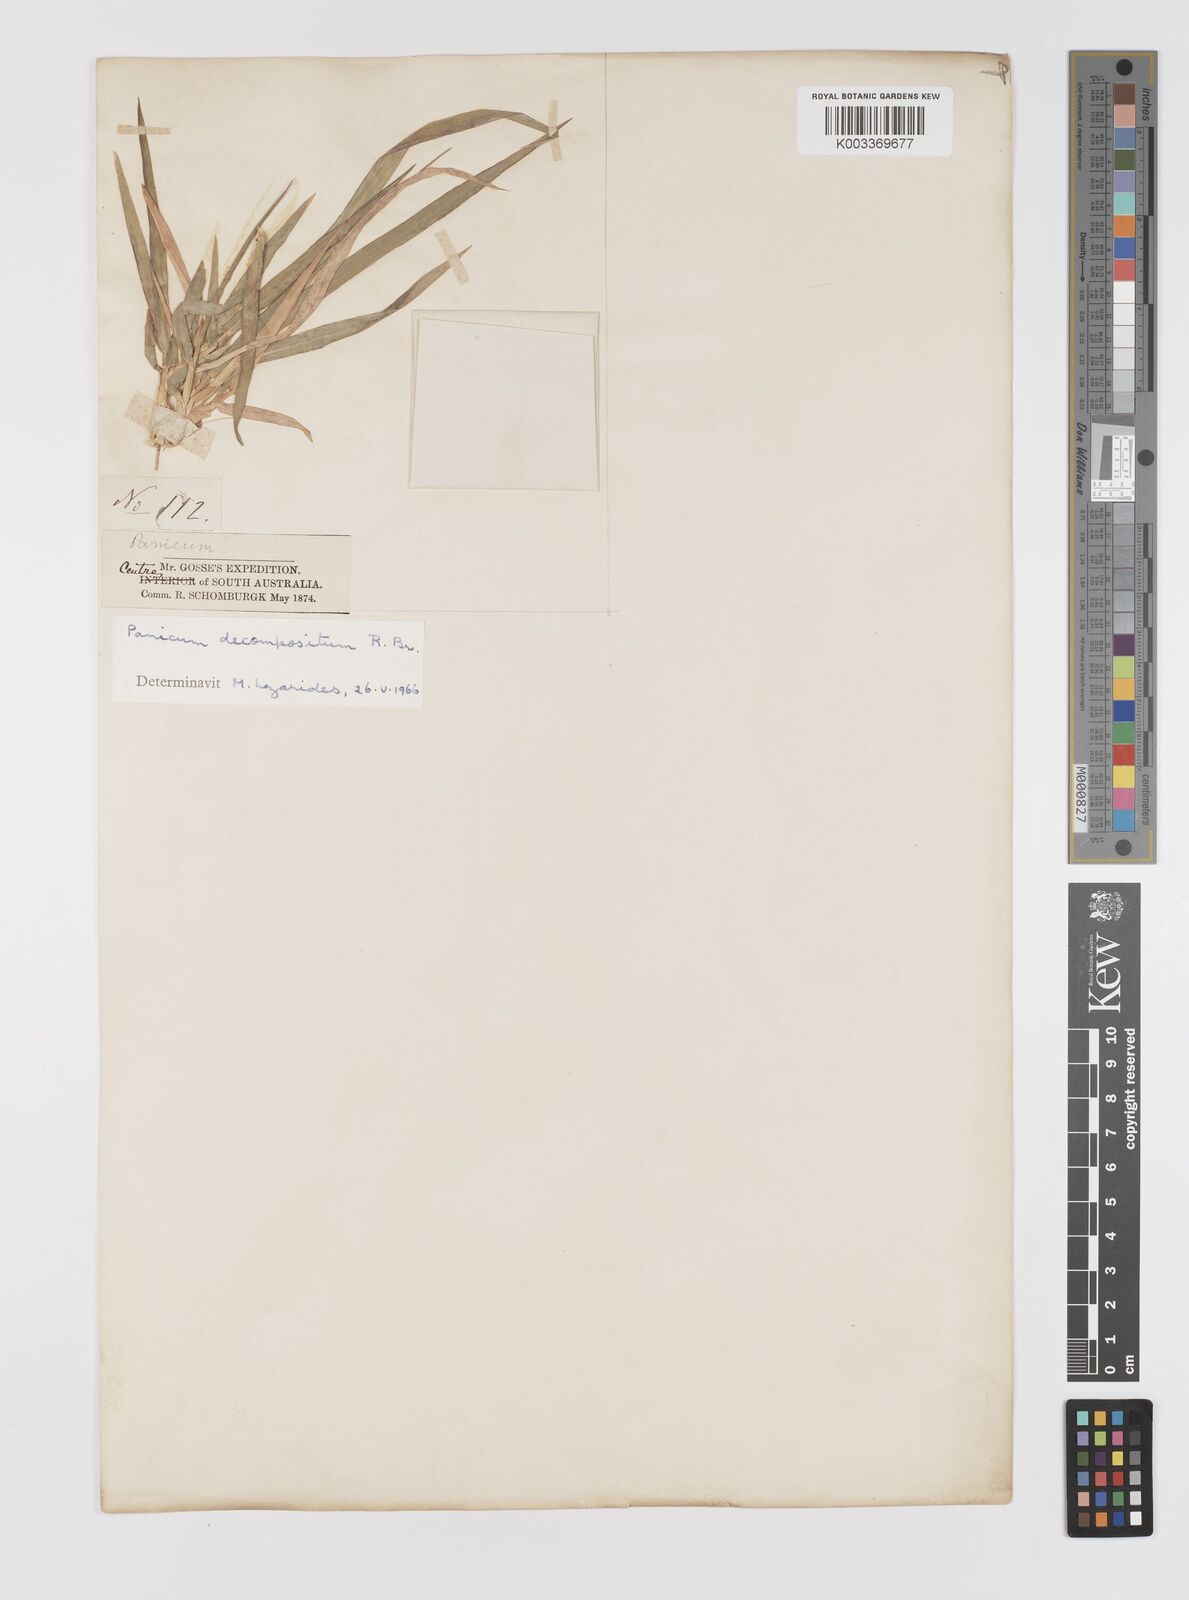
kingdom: Plantae
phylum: Tracheophyta
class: Liliopsida
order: Poales
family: Poaceae
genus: Panicum
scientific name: Panicum decompositum
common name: Australian millet
